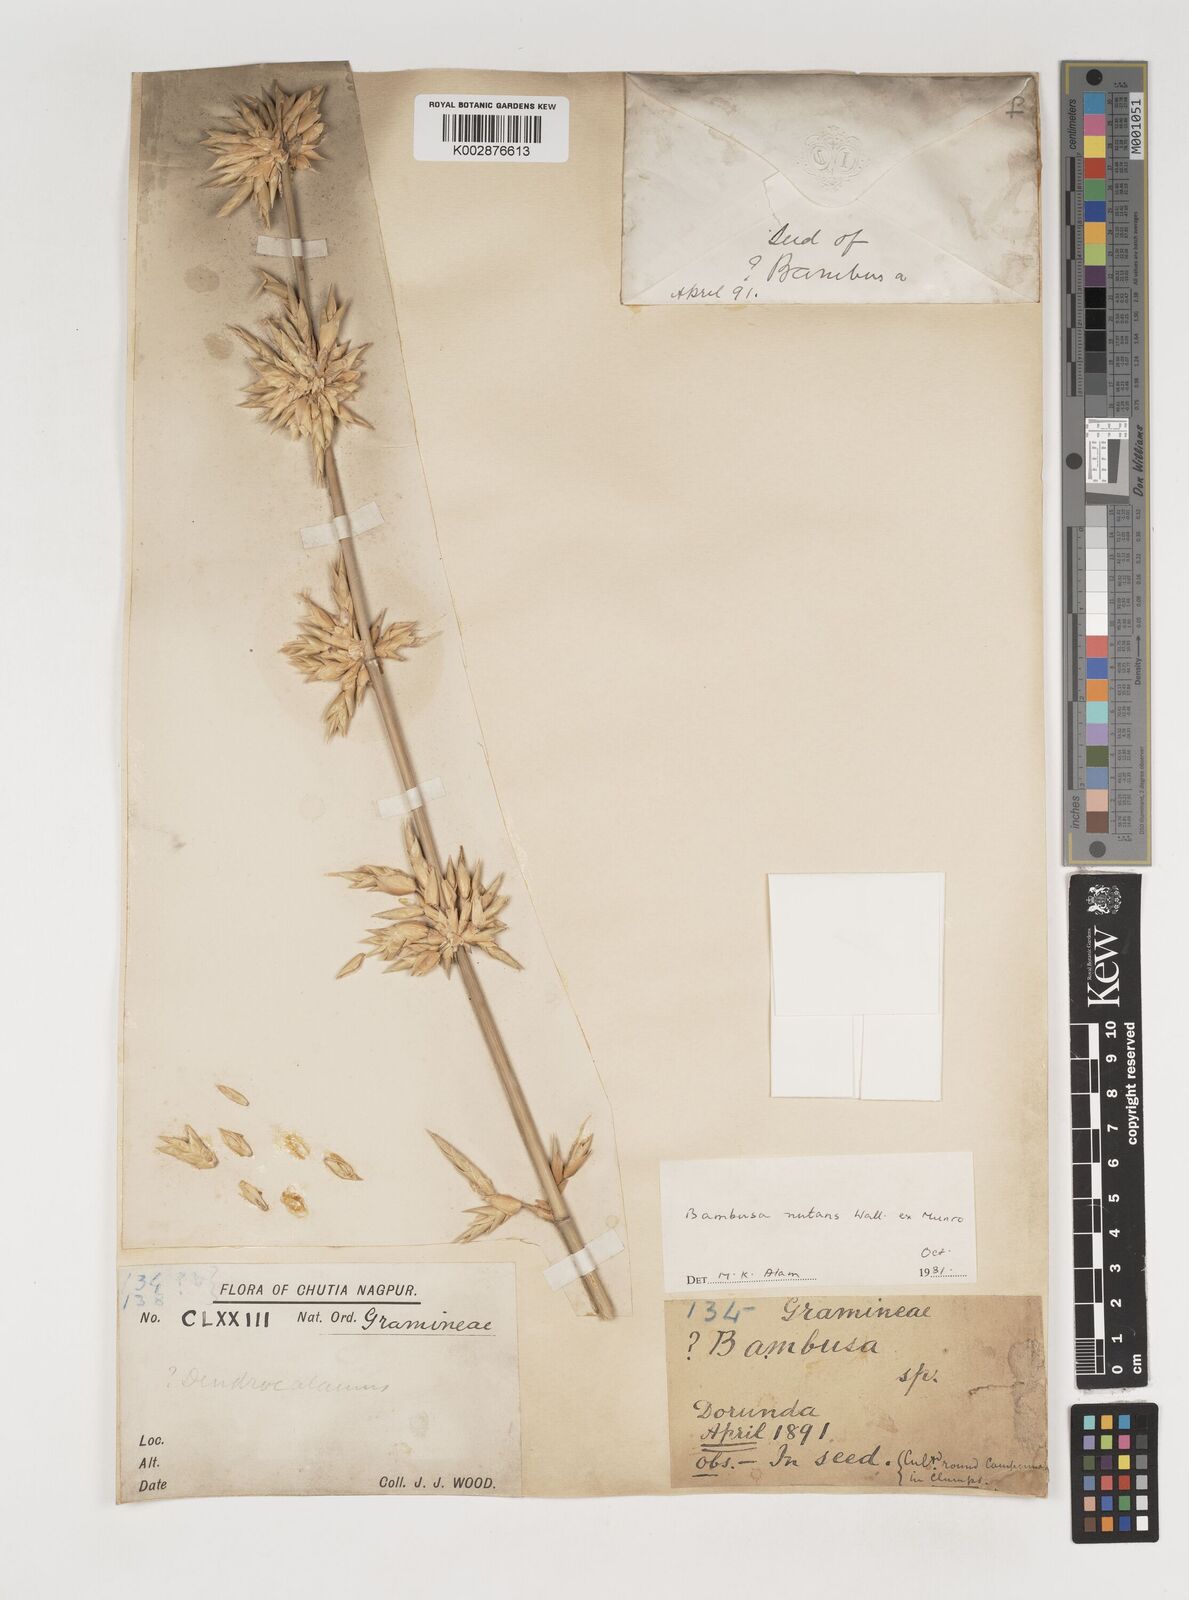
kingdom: Plantae
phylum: Tracheophyta
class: Liliopsida
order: Poales
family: Poaceae
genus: Bambusa
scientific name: Bambusa nutans
